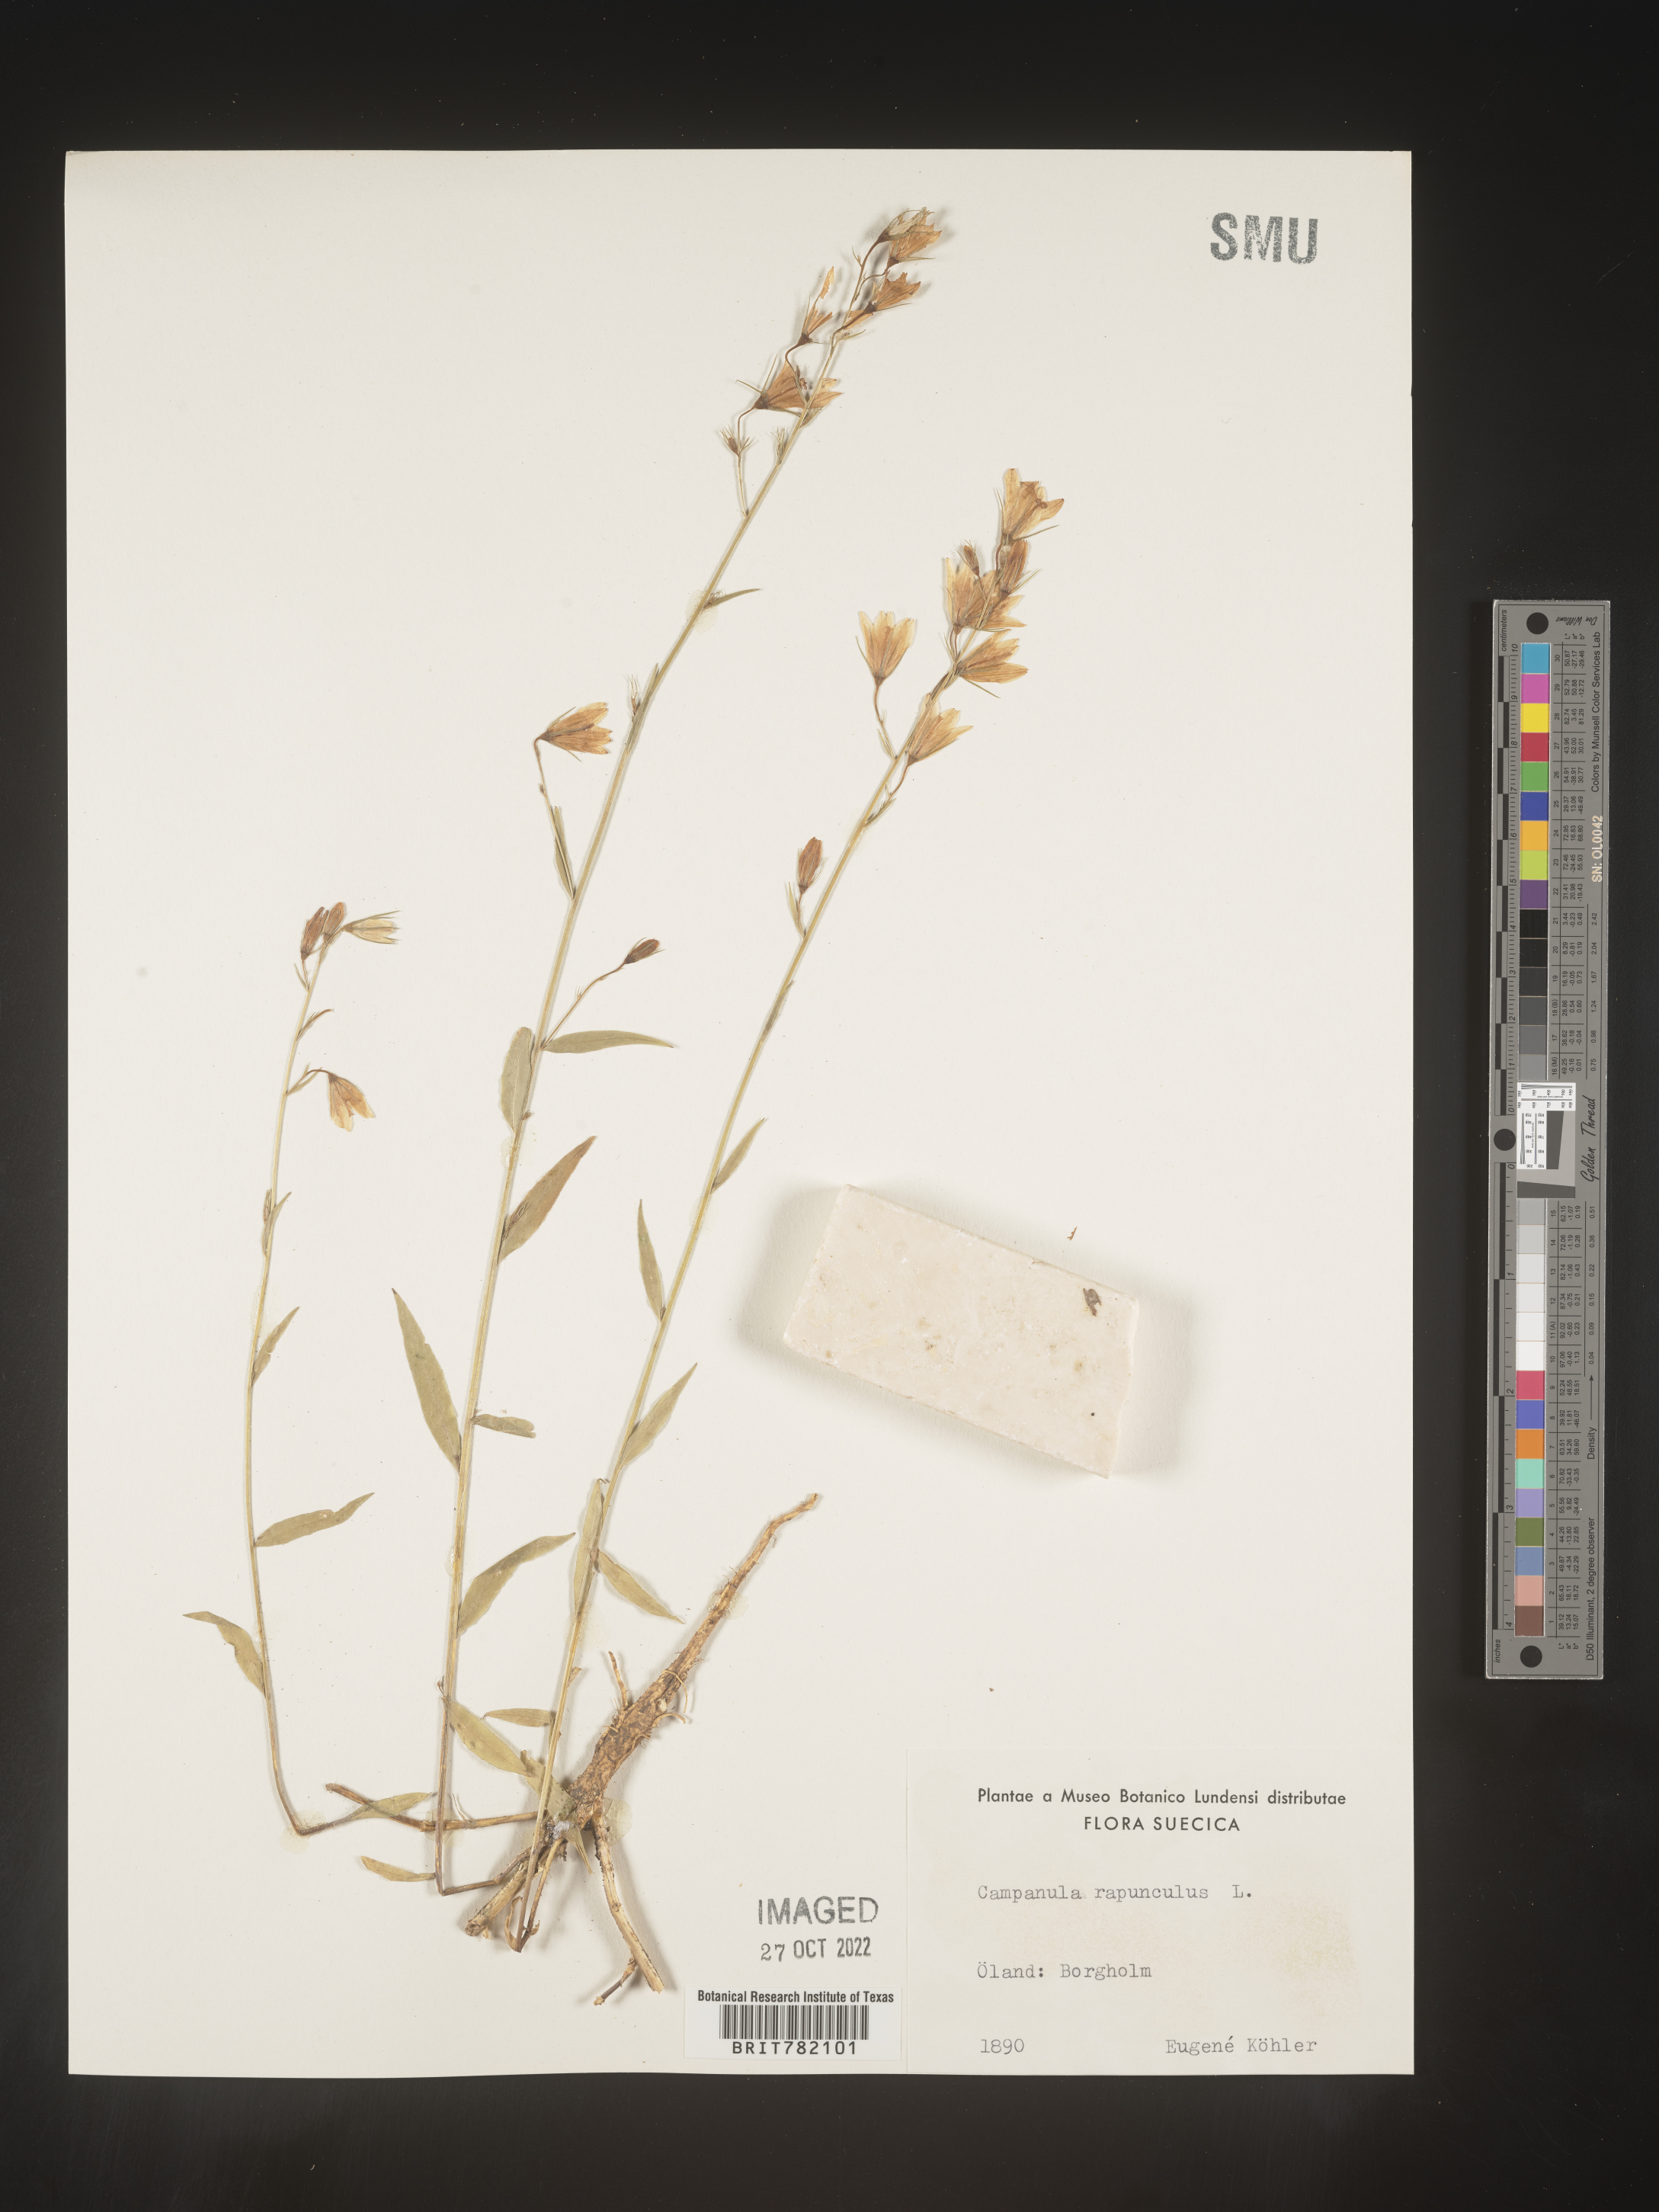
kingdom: Plantae
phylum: Tracheophyta
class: Magnoliopsida
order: Asterales
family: Campanulaceae
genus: Campanula
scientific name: Campanula
